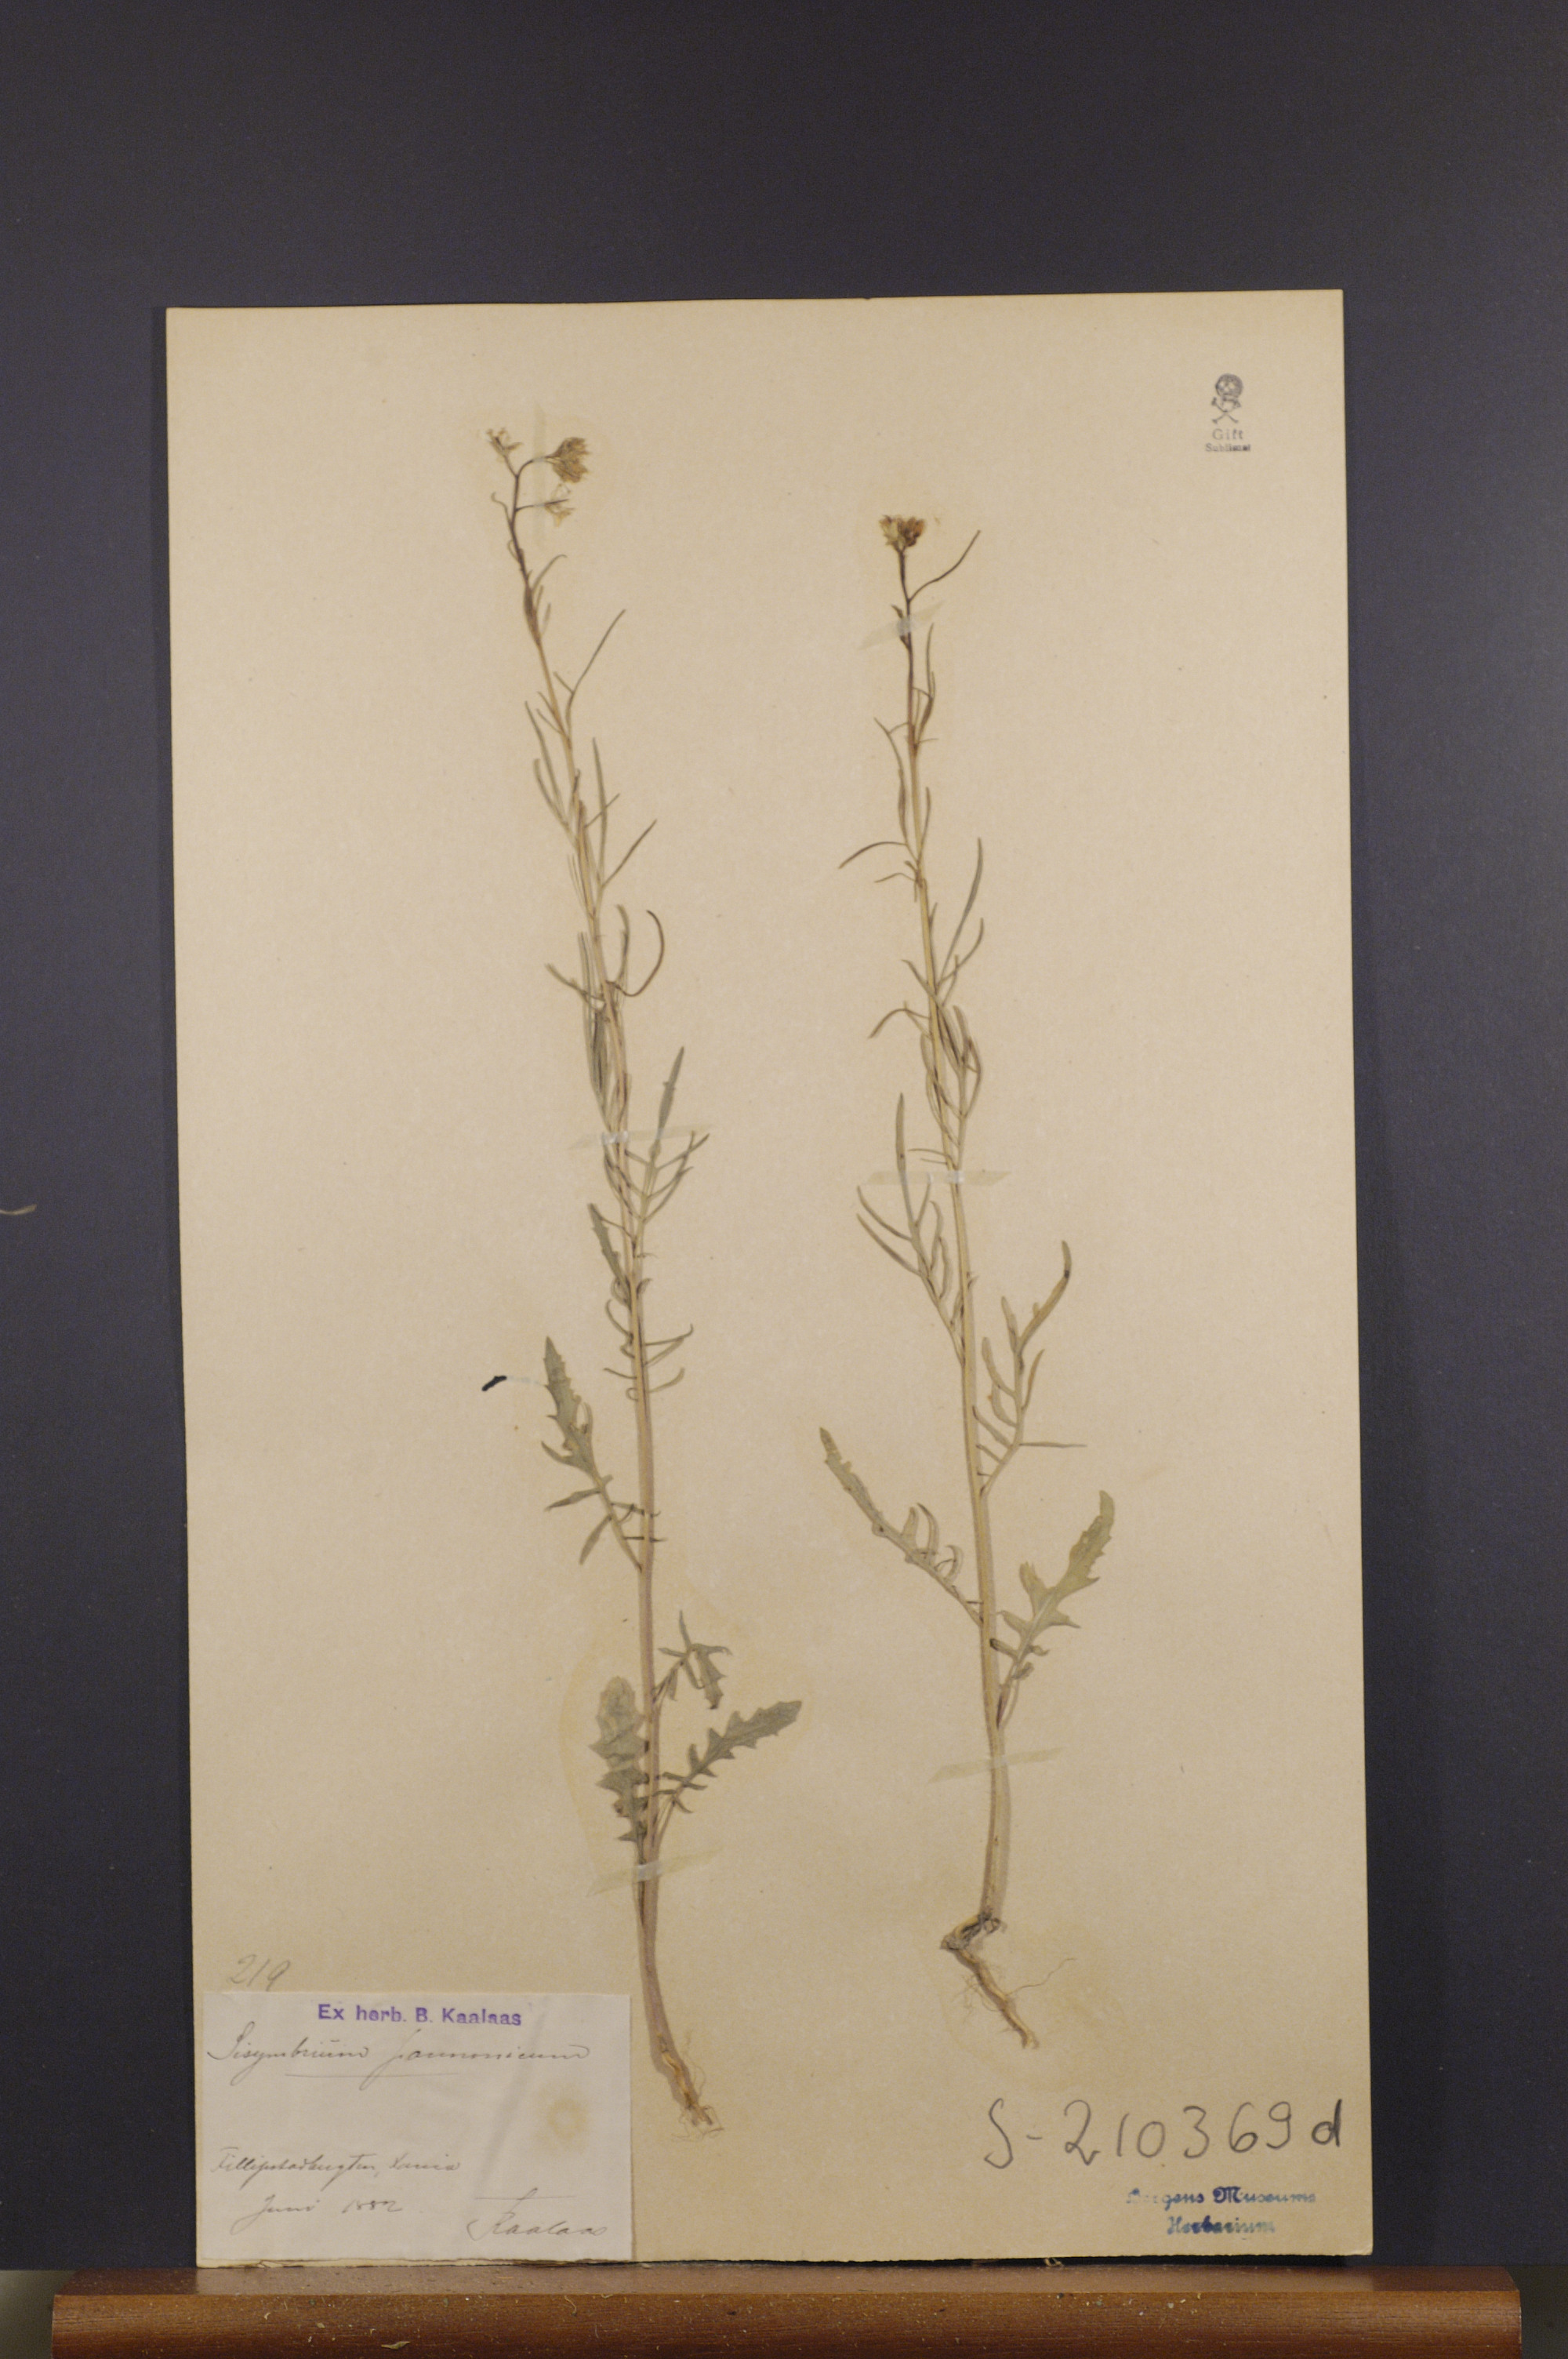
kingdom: Plantae
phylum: Tracheophyta
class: Magnoliopsida
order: Brassicales
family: Brassicaceae
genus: Sisymbrium
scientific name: Sisymbrium altissimum
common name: Tall rocket
